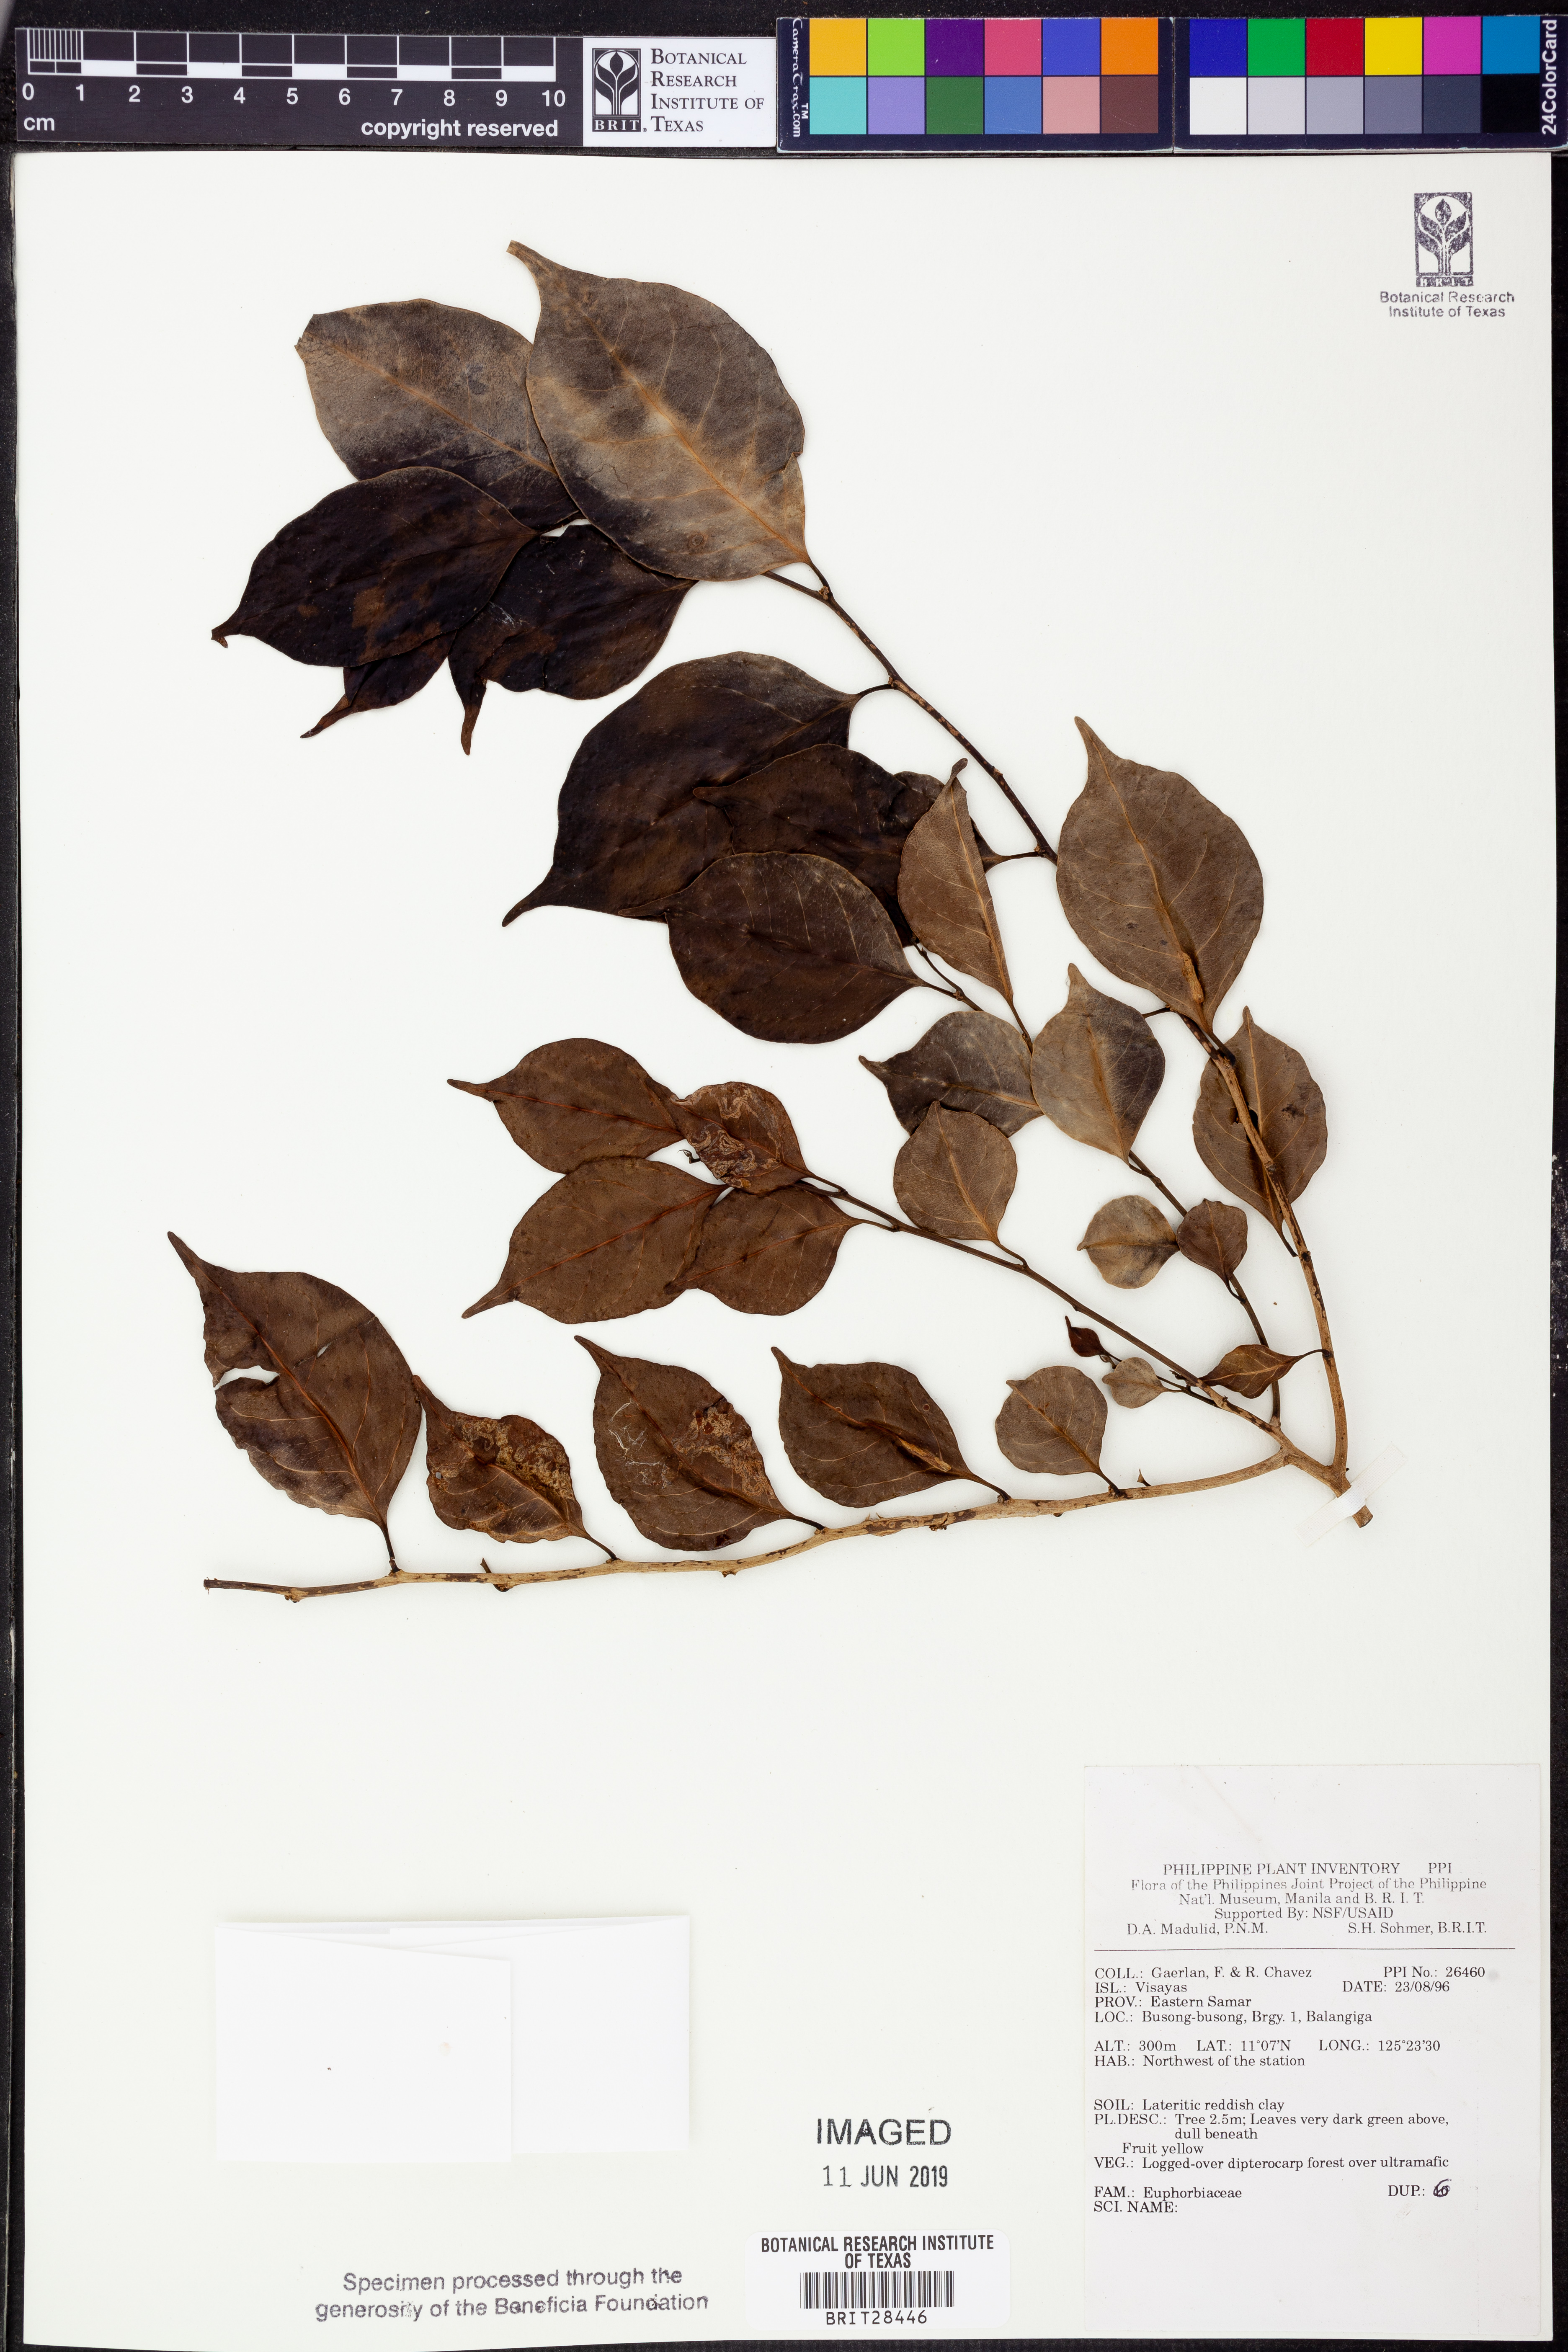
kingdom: Plantae
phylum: Tracheophyta
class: Magnoliopsida
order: Malpighiales
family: Euphorbiaceae
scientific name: Euphorbiaceae
